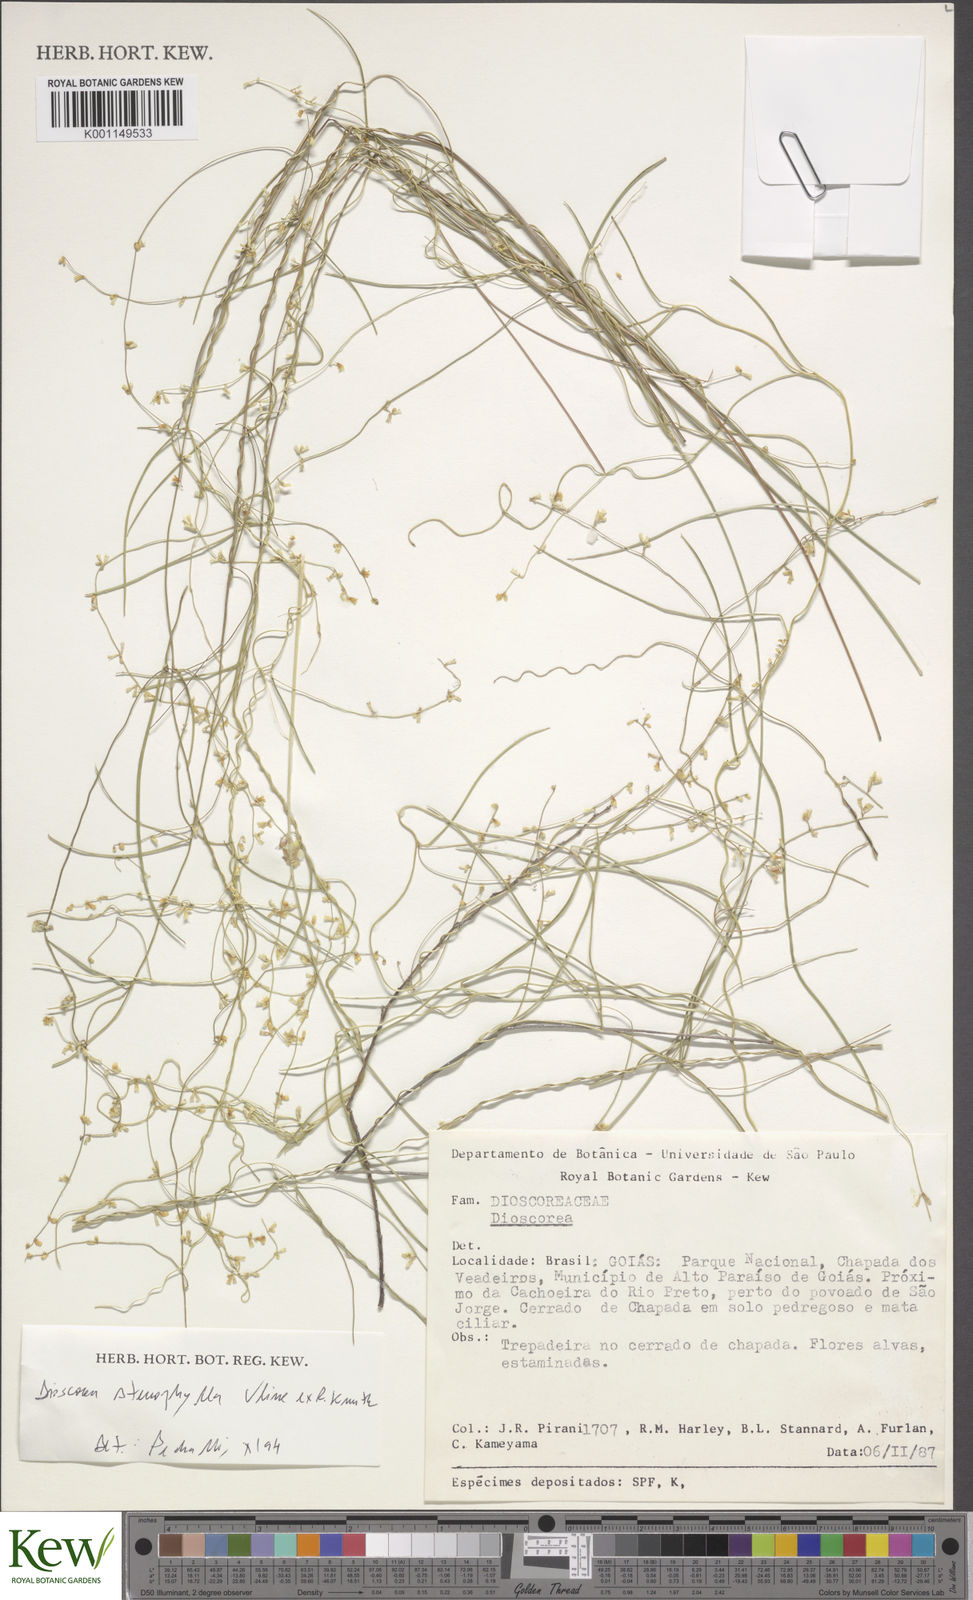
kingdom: Plantae
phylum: Tracheophyta
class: Liliopsida
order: Dioscoreales
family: Dioscoreaceae
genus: Dioscorea
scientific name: Dioscorea stenophylla
